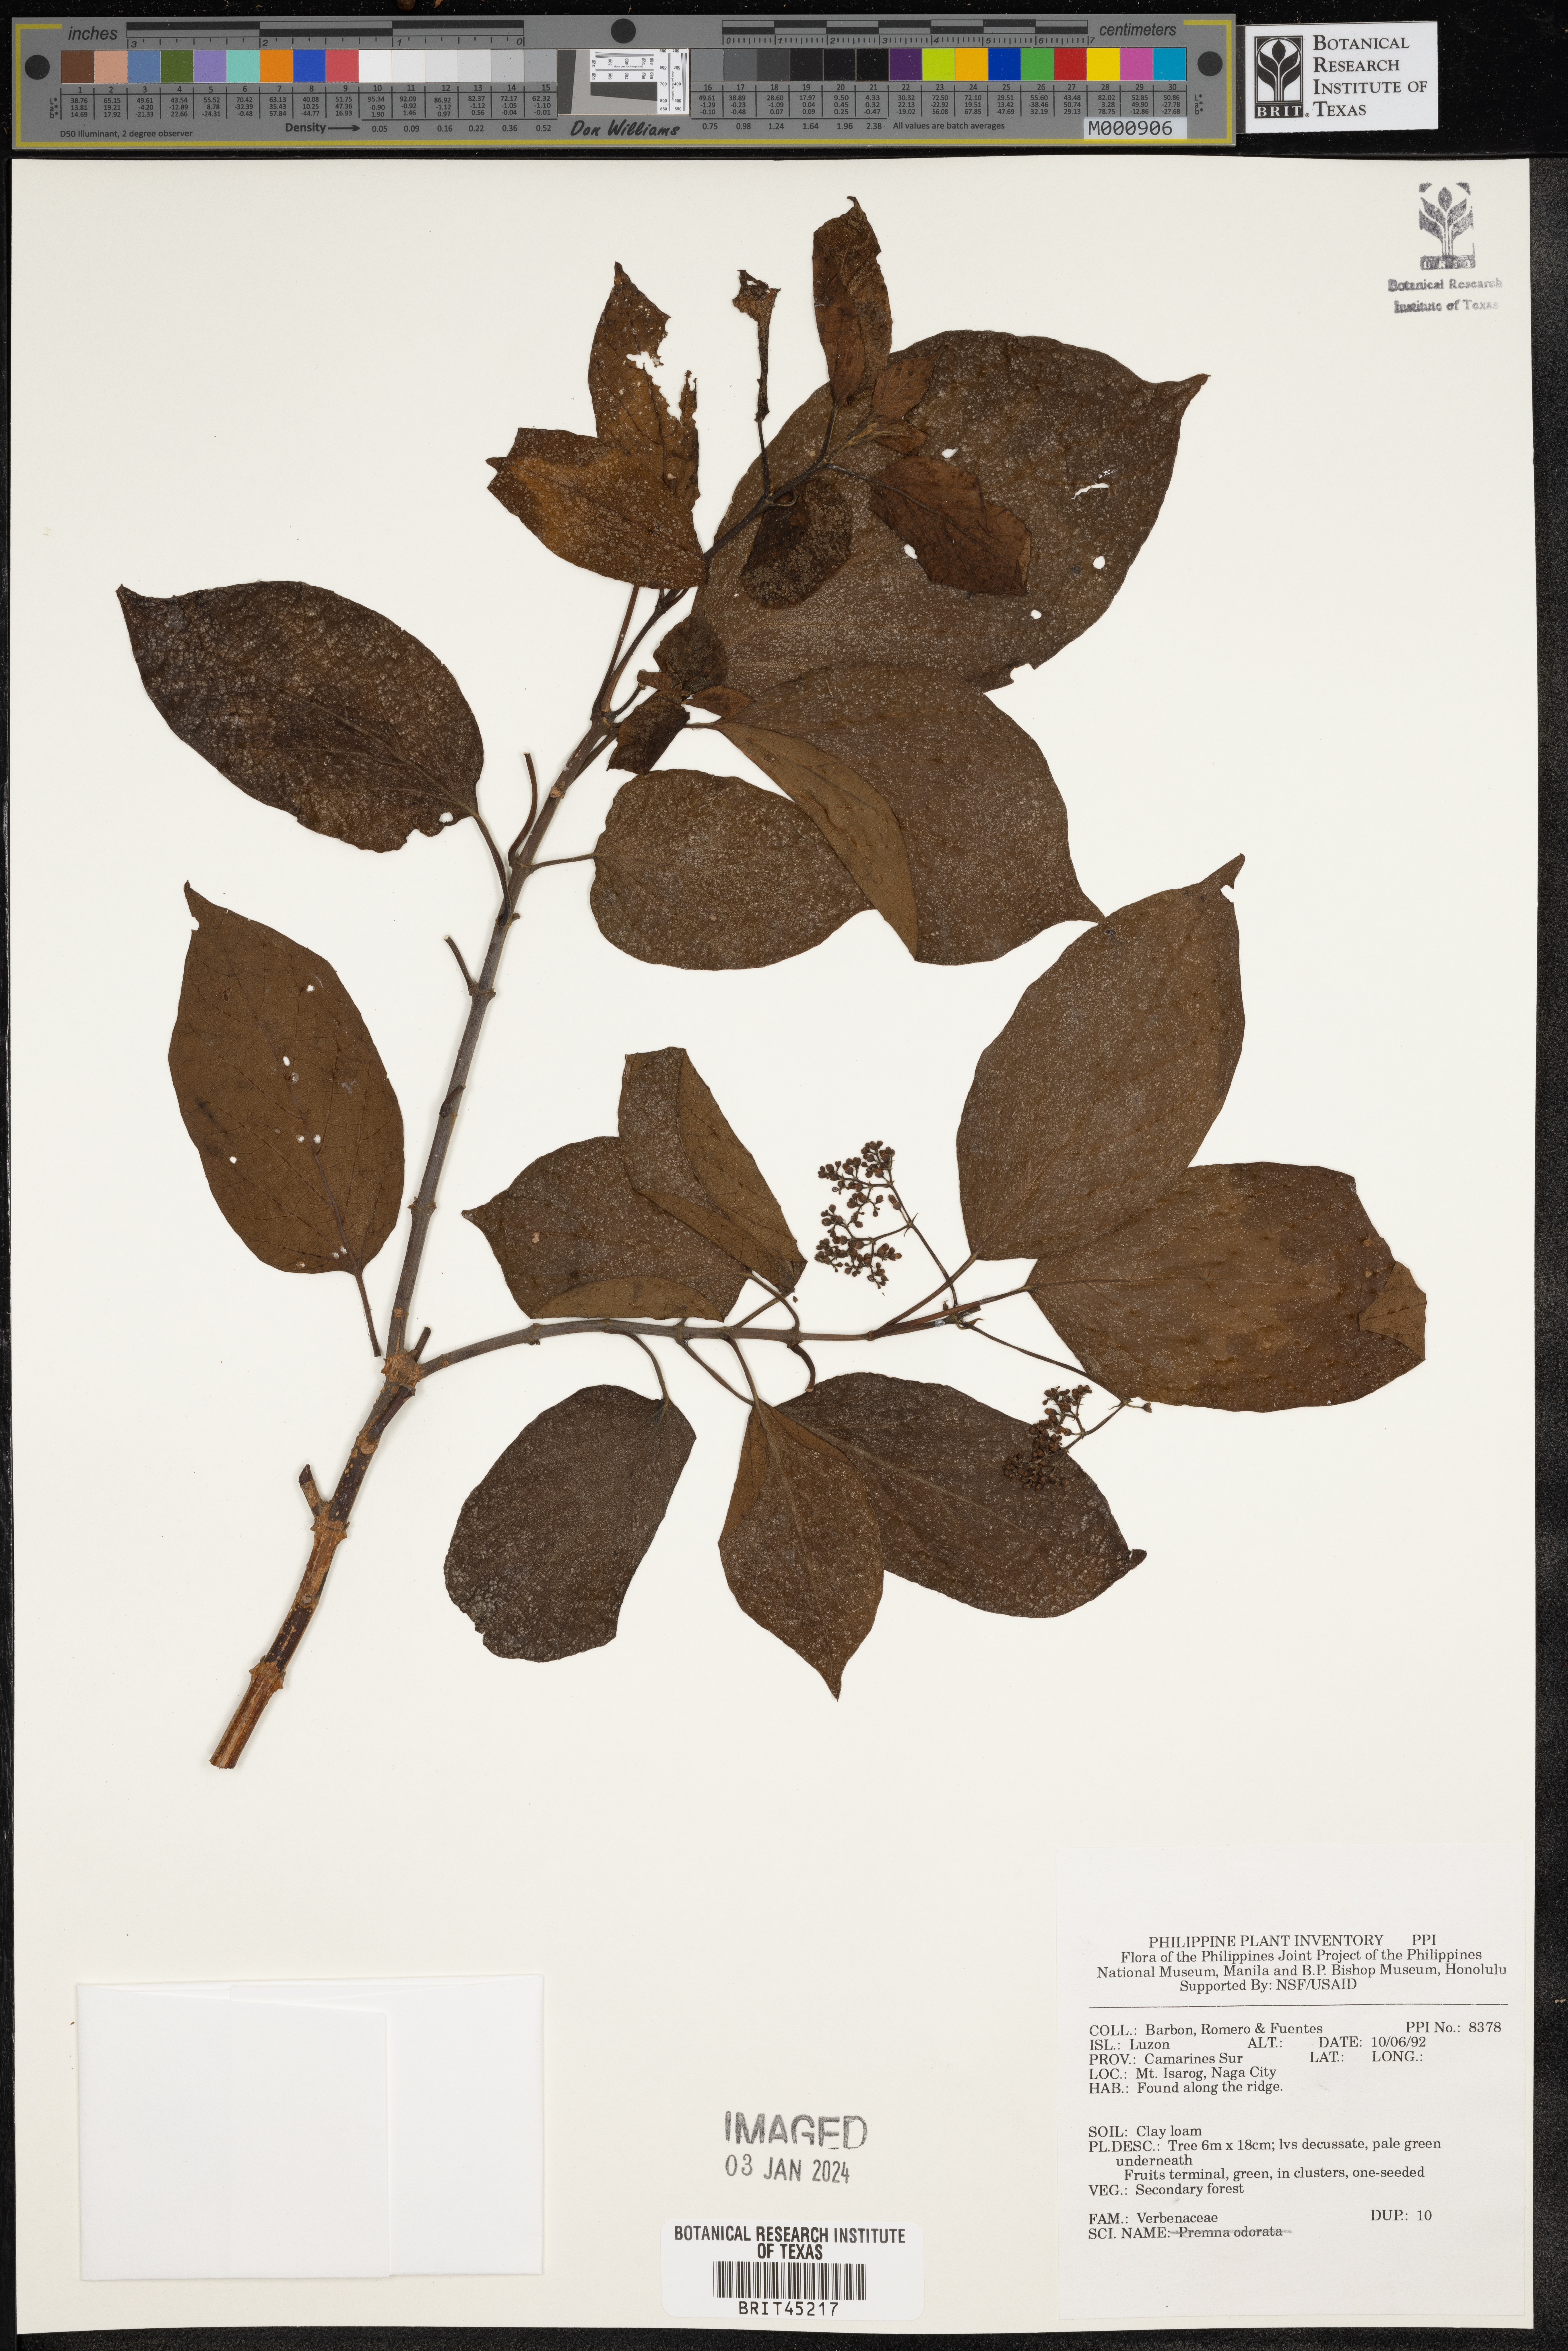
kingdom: Plantae
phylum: Tracheophyta
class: Magnoliopsida
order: Lamiales
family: Verbenaceae
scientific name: Verbenaceae
